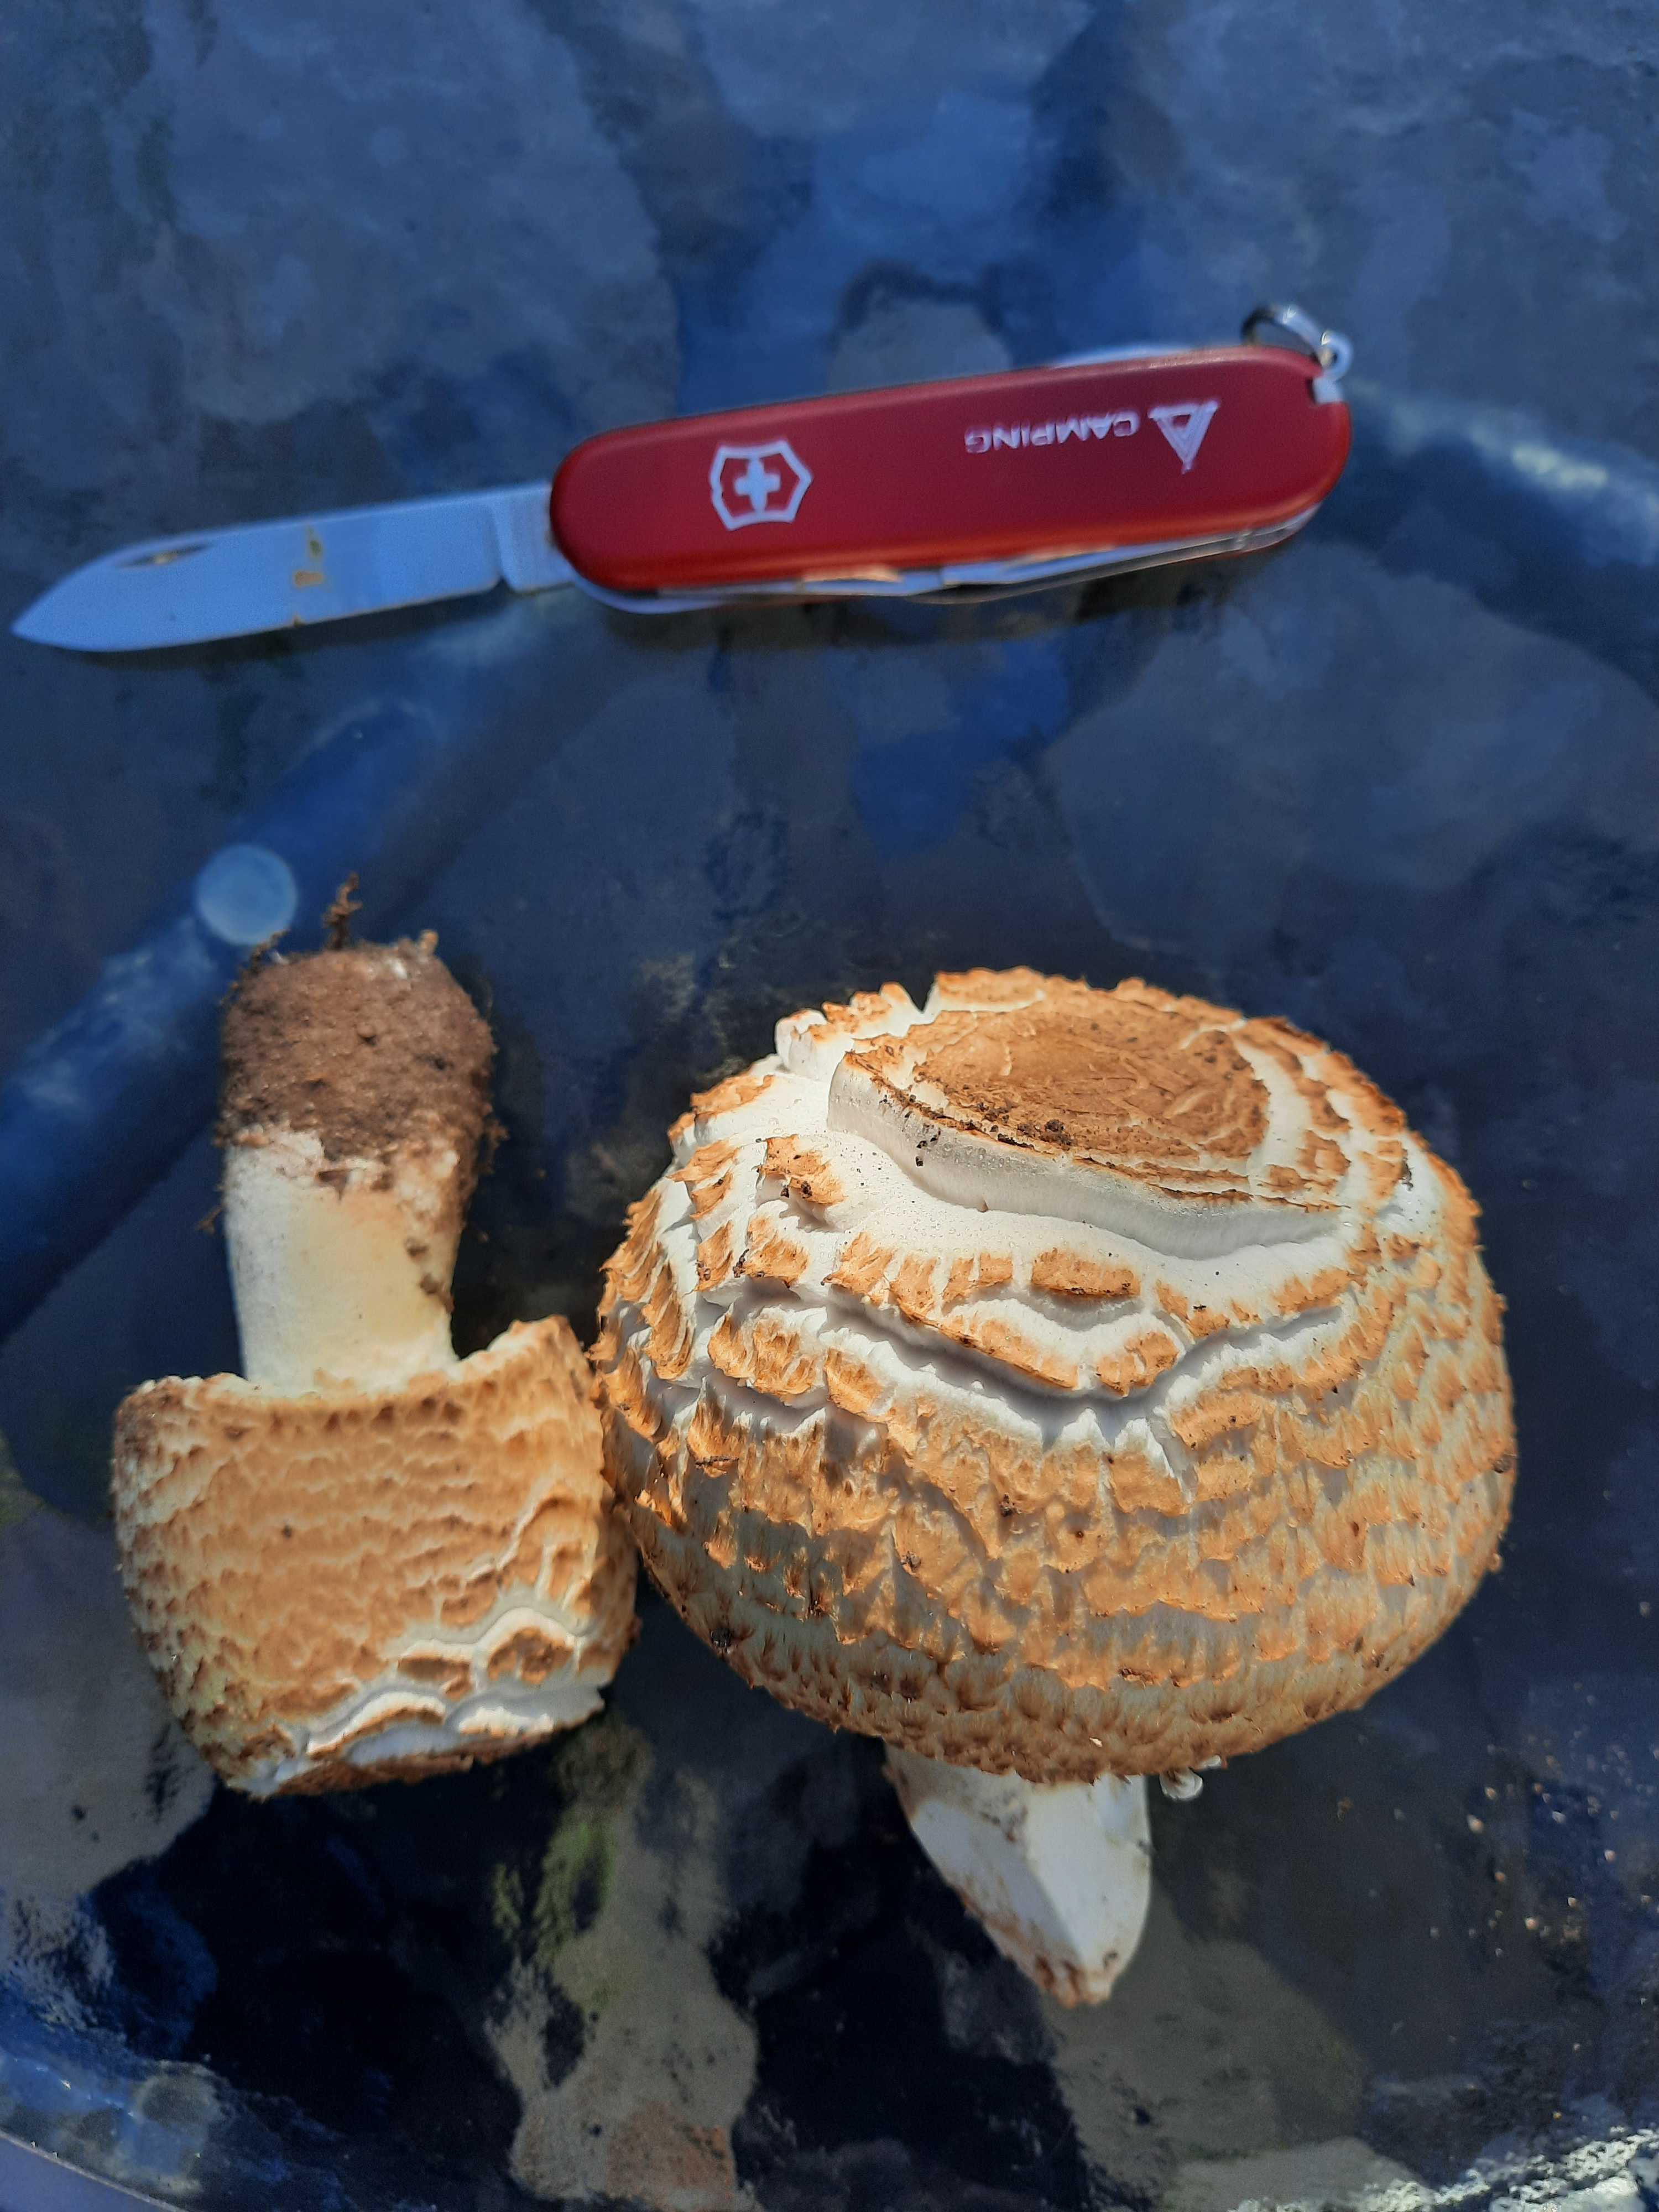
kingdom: Fungi
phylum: Basidiomycota
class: Agaricomycetes
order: Agaricales
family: Agaricaceae
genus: Agaricus
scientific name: Agaricus augustus
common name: prægtig champignon
